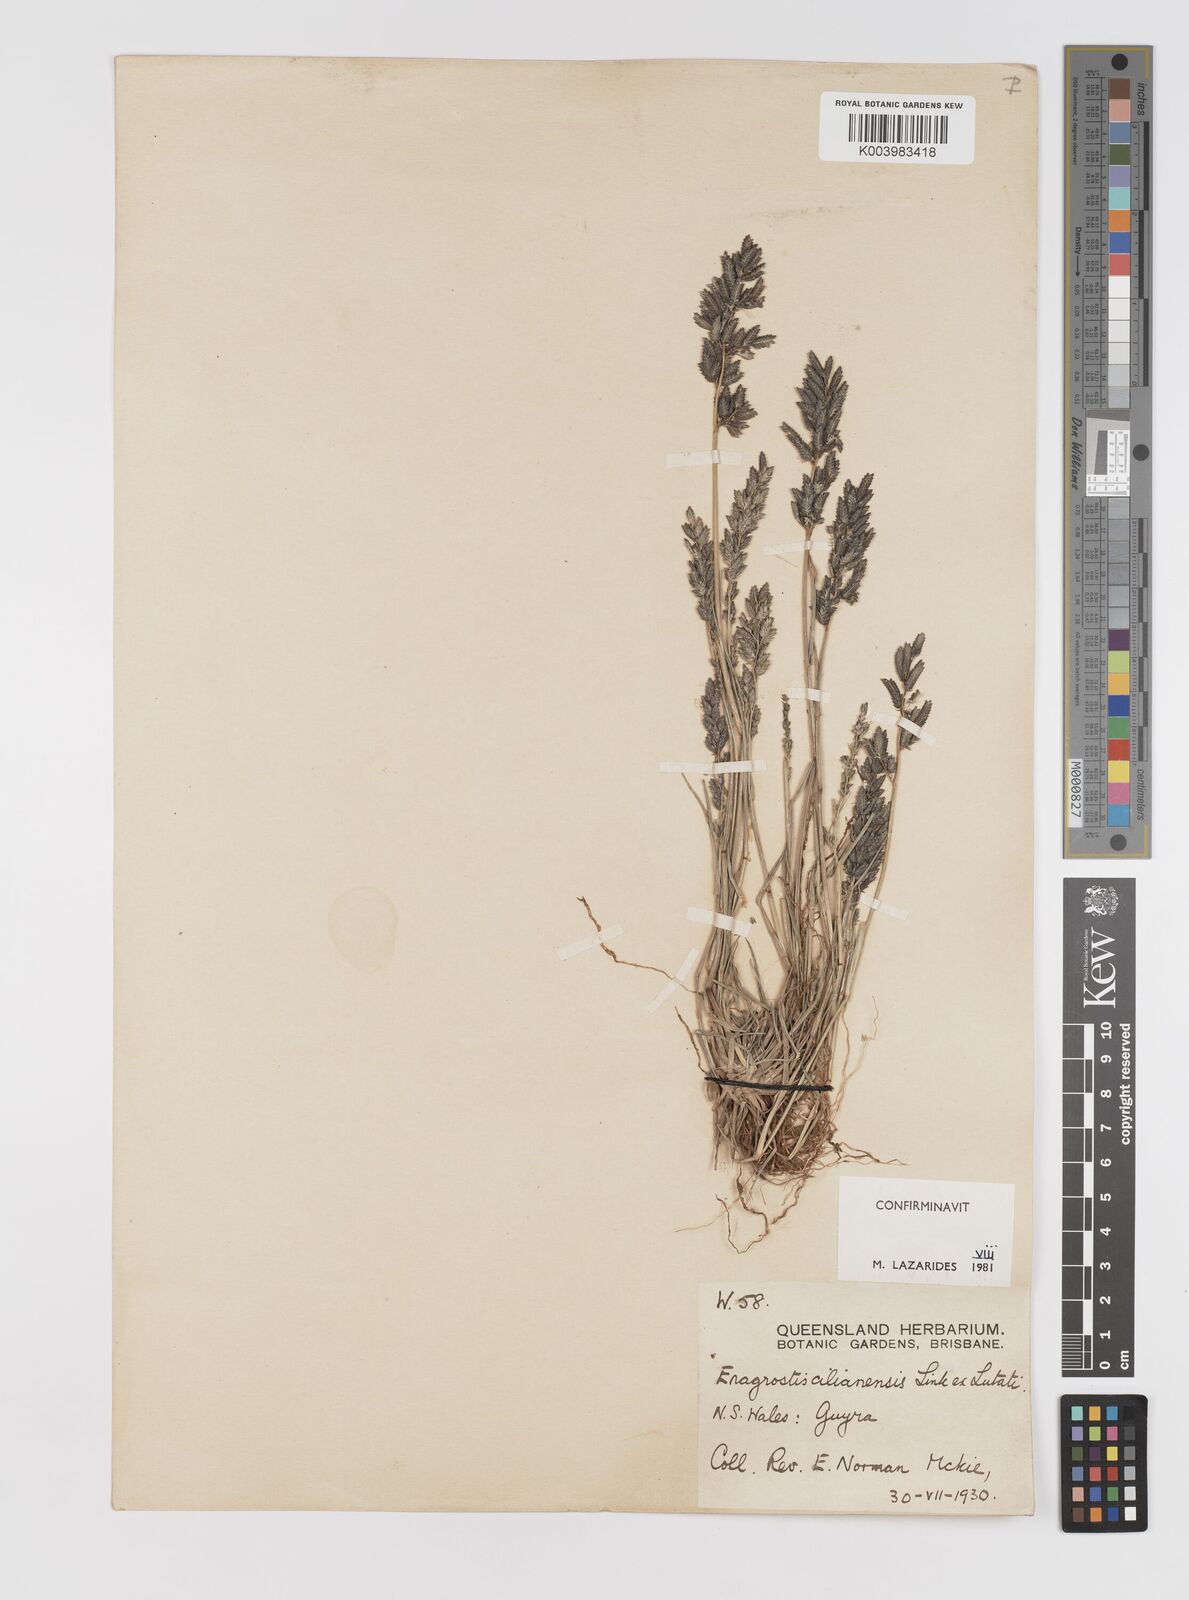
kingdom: Plantae
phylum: Tracheophyta
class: Liliopsida
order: Poales
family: Poaceae
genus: Eragrostis
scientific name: Eragrostis cilianensis
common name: Stinkgrass
